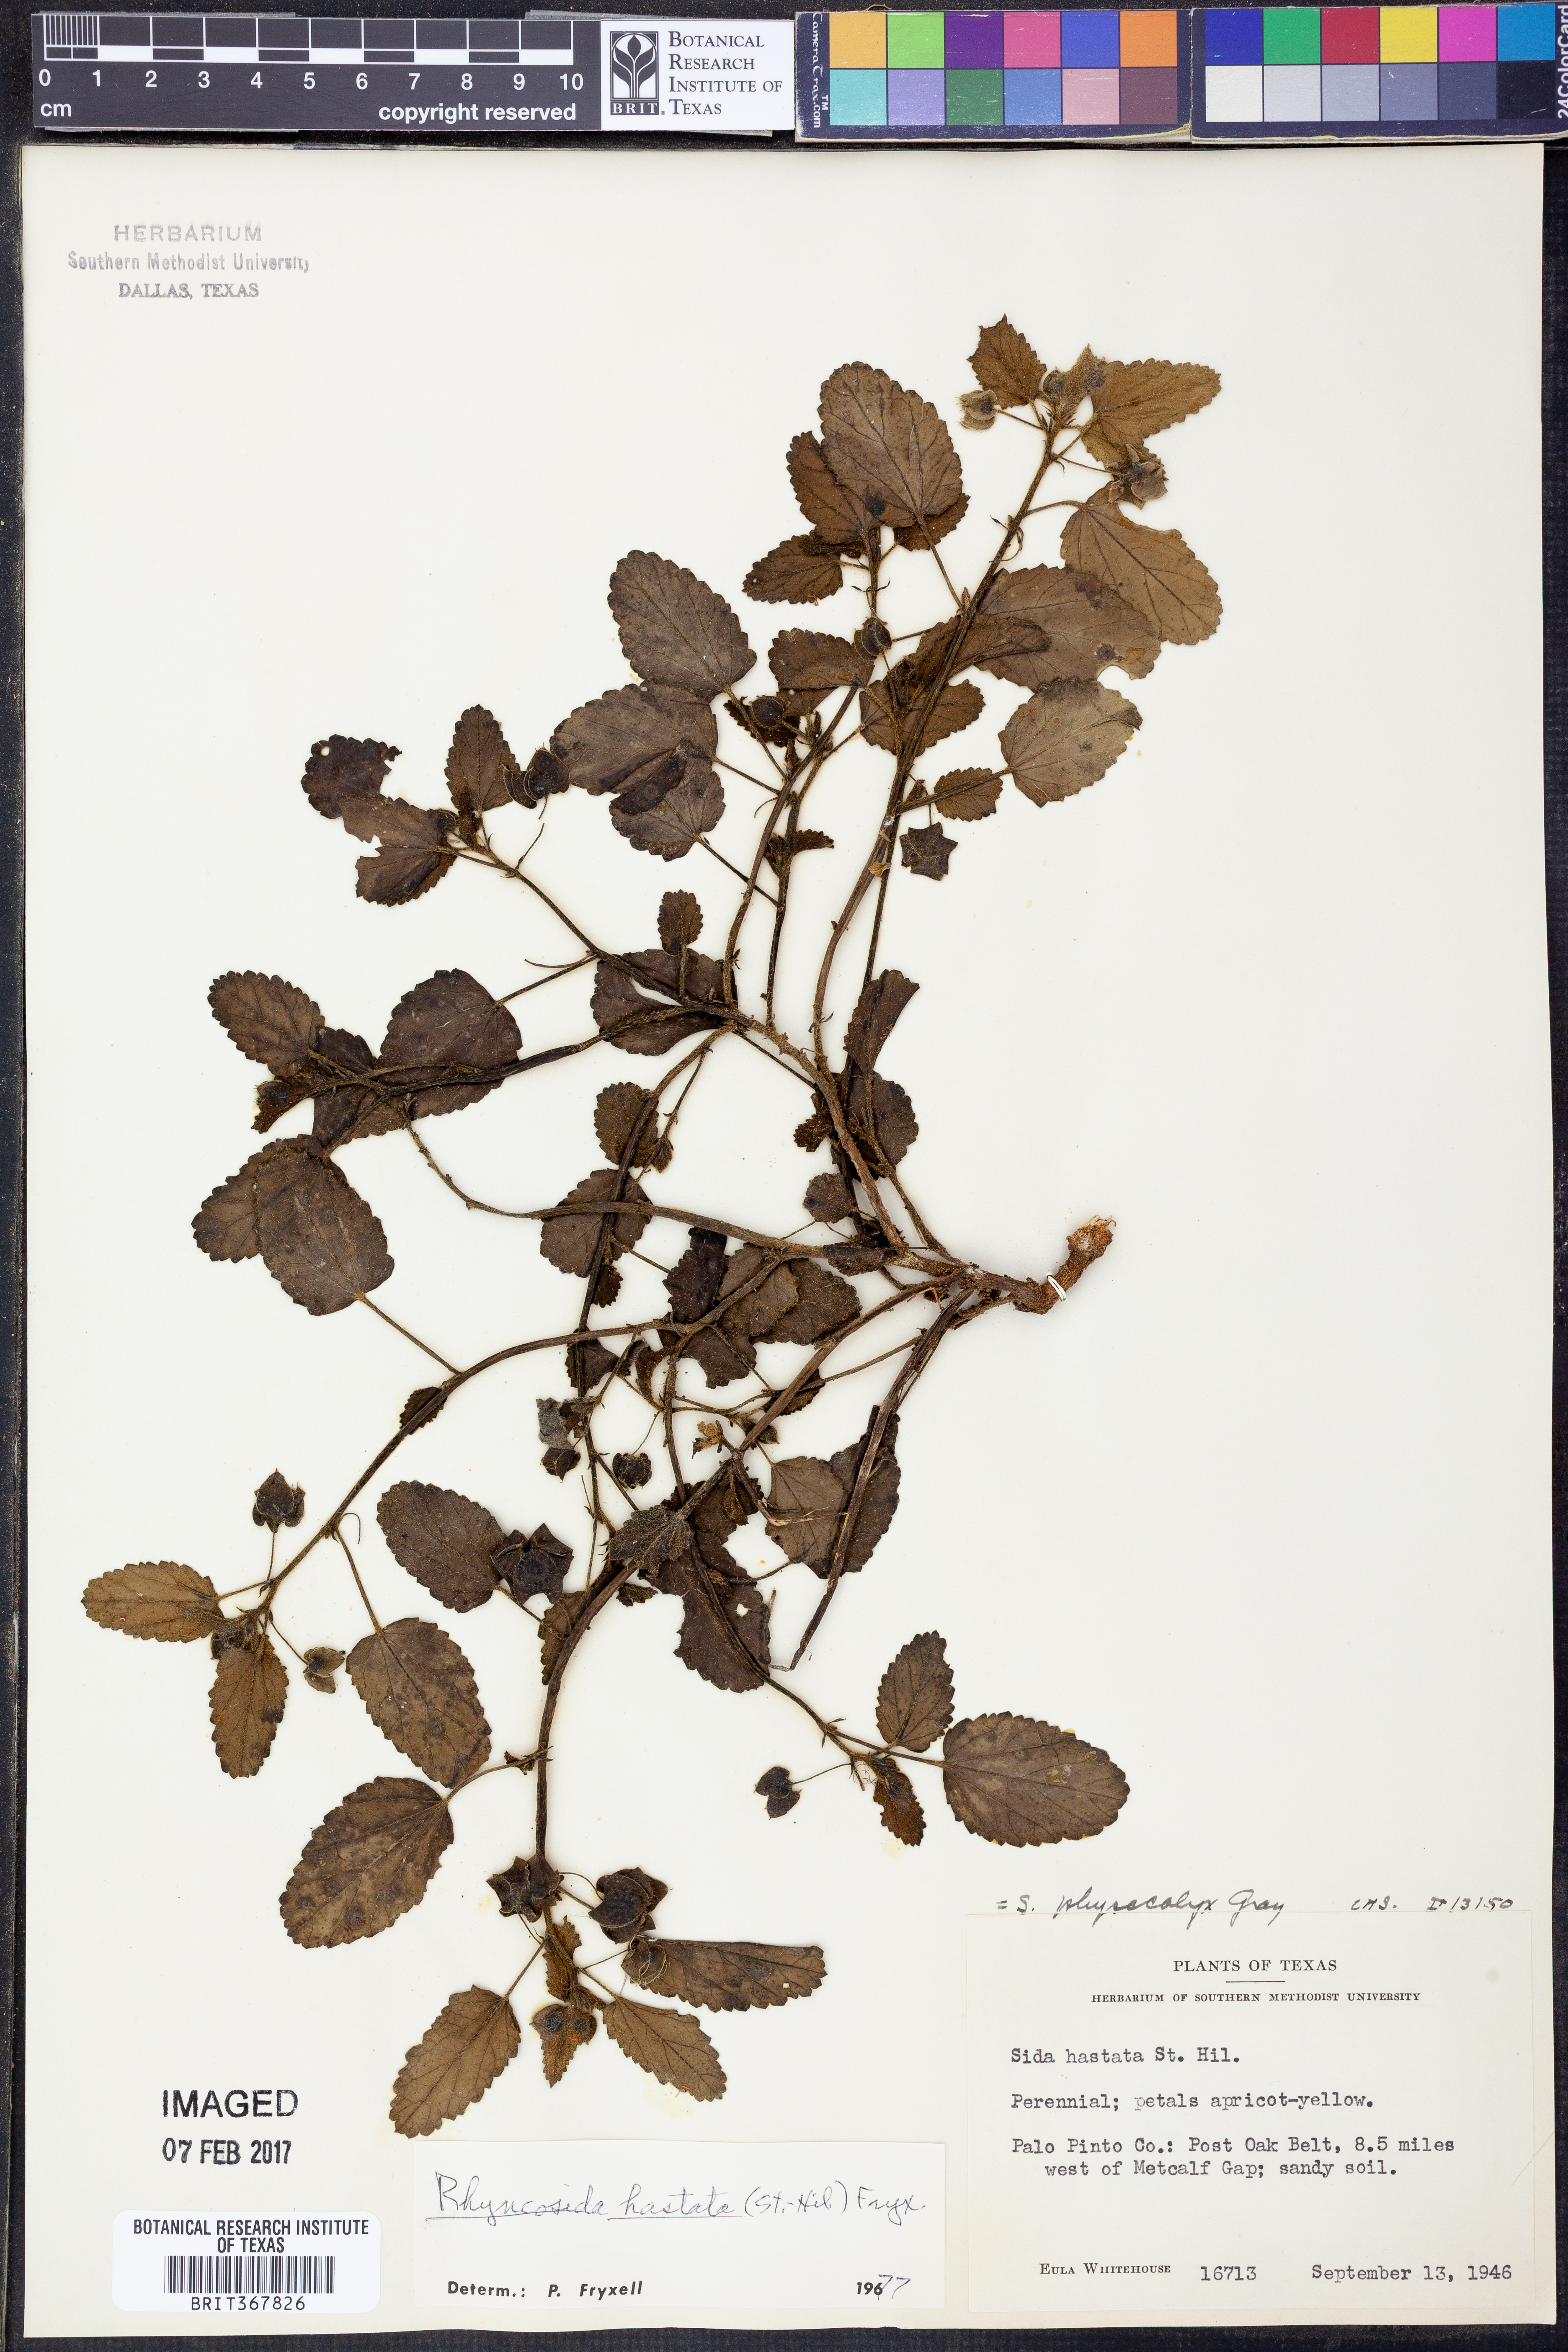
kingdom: Plantae
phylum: Tracheophyta
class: Magnoliopsida
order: Malvales
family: Malvaceae
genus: Rhynchosida
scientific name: Rhynchosida
